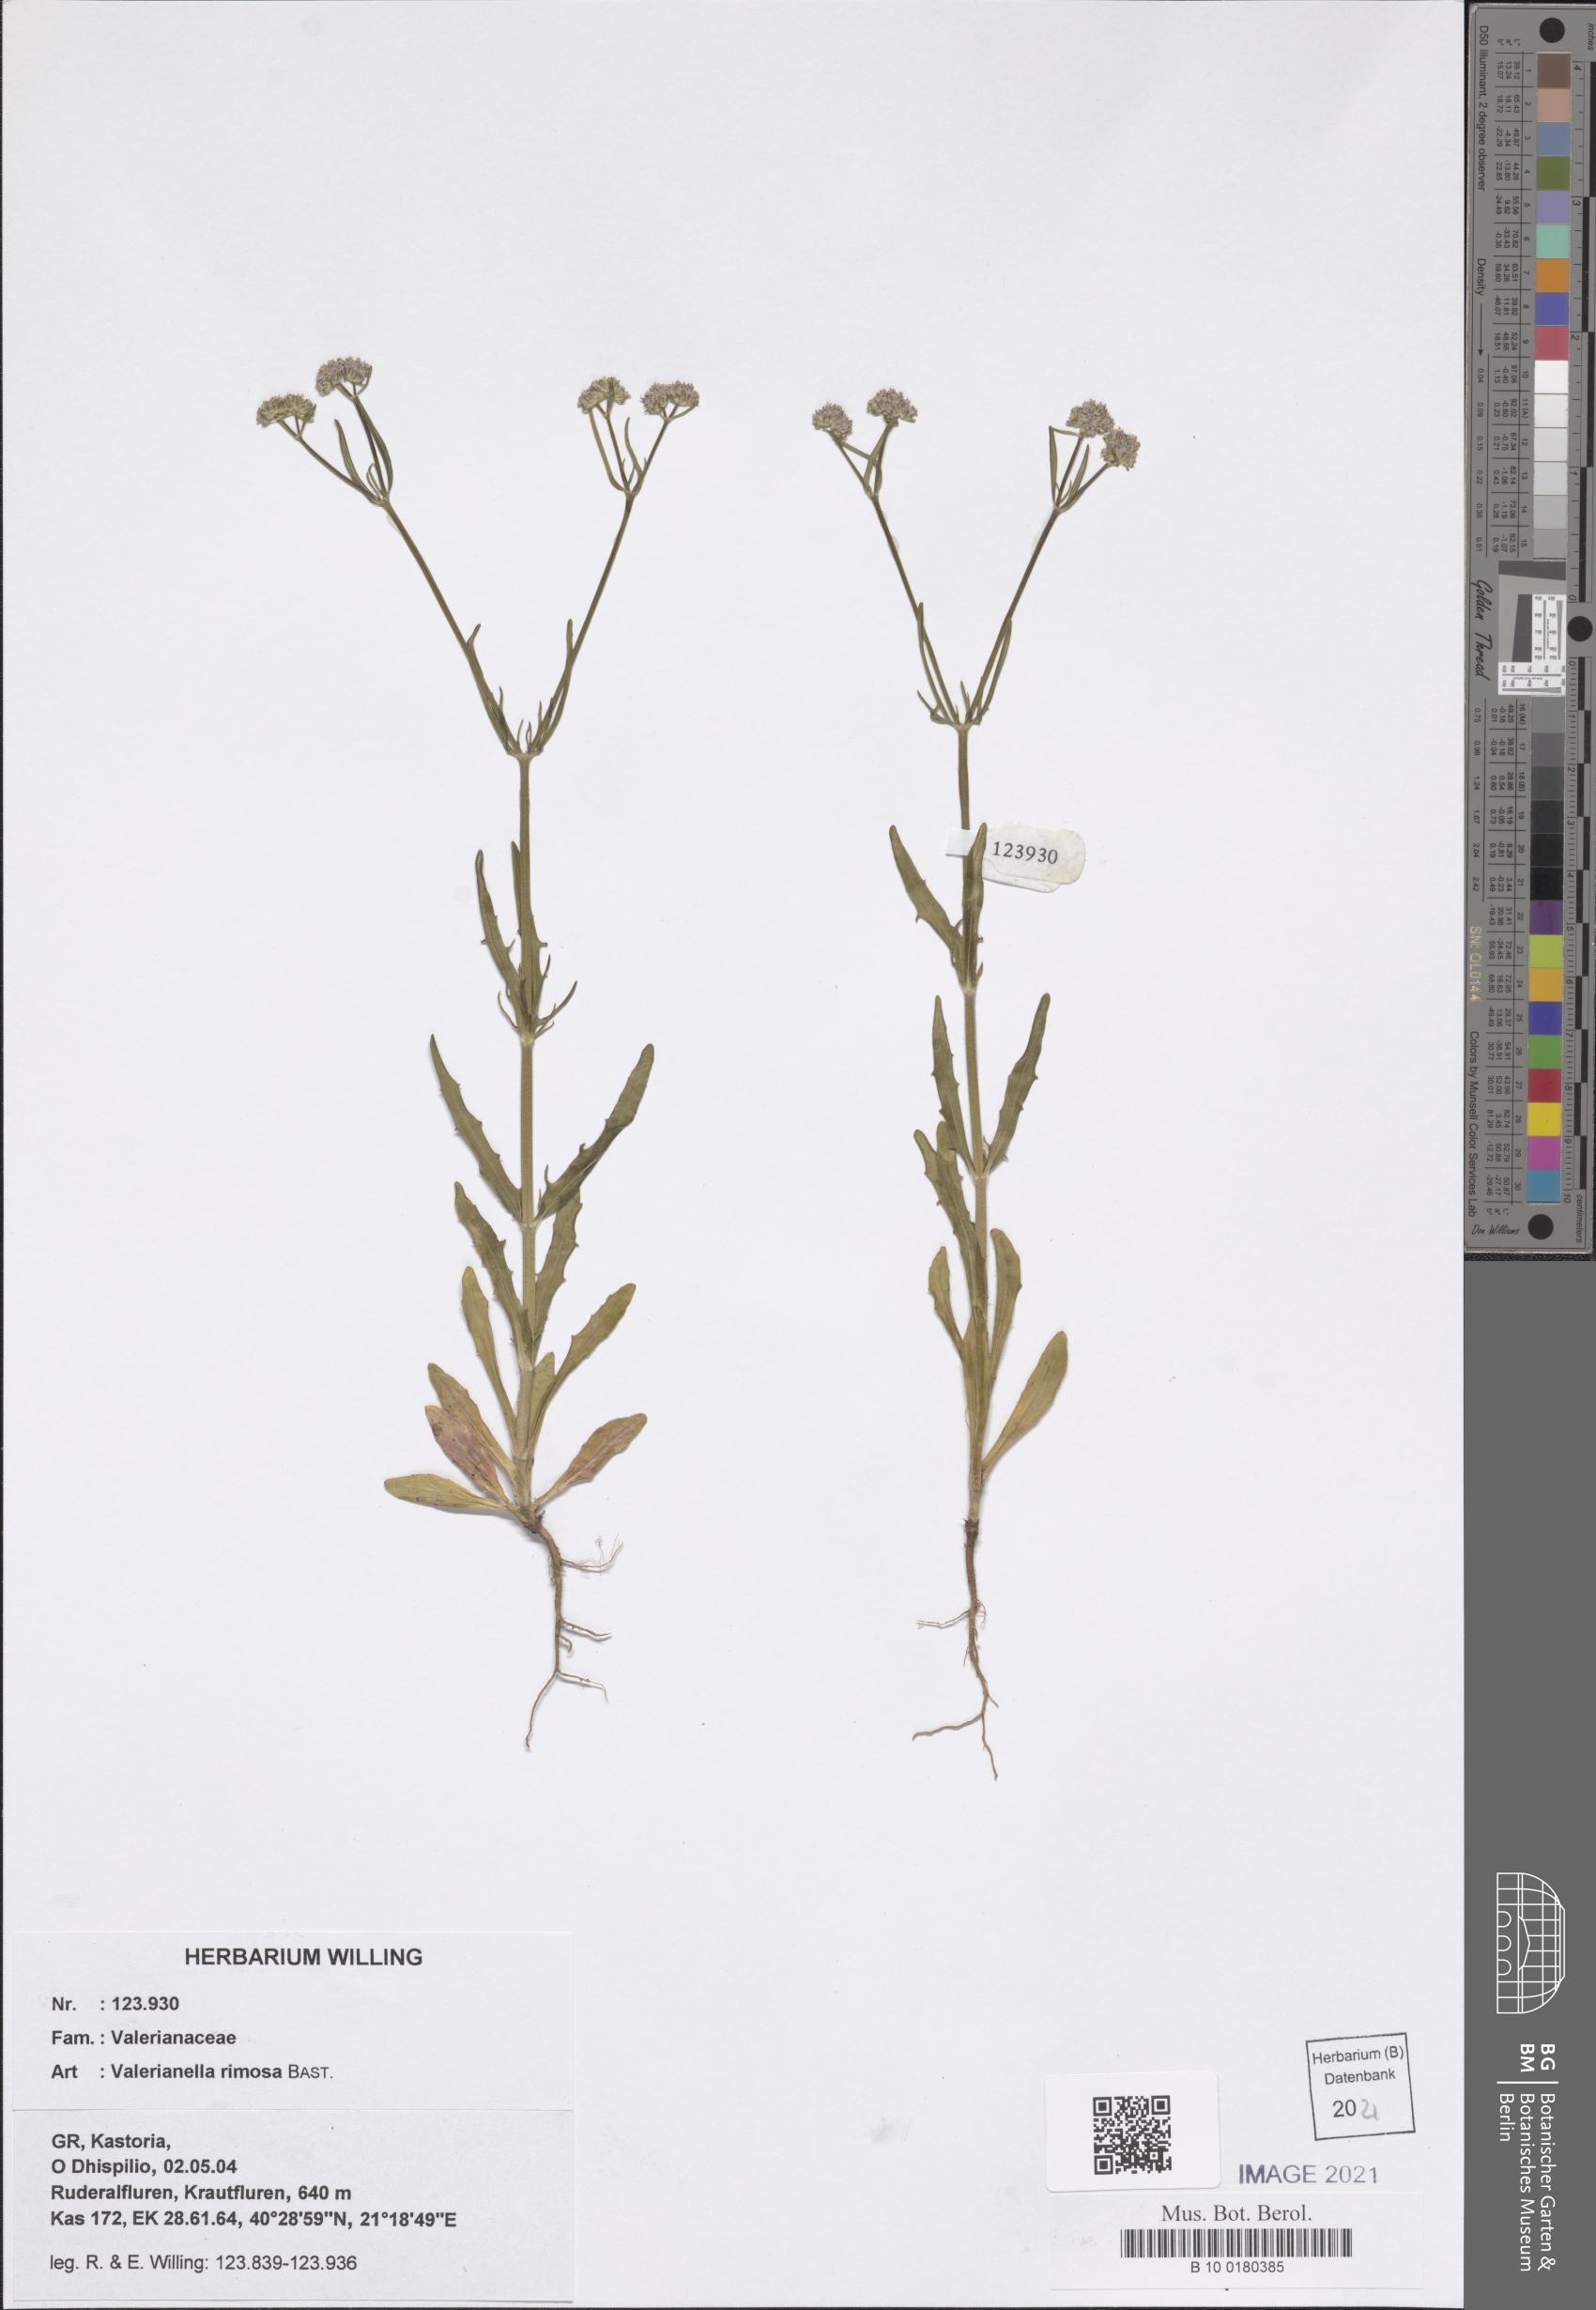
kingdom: Plantae
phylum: Tracheophyta
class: Magnoliopsida
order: Dipsacales
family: Caprifoliaceae
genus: Valerianella
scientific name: Valerianella rimosa
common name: Broad-fruited cornsalad
